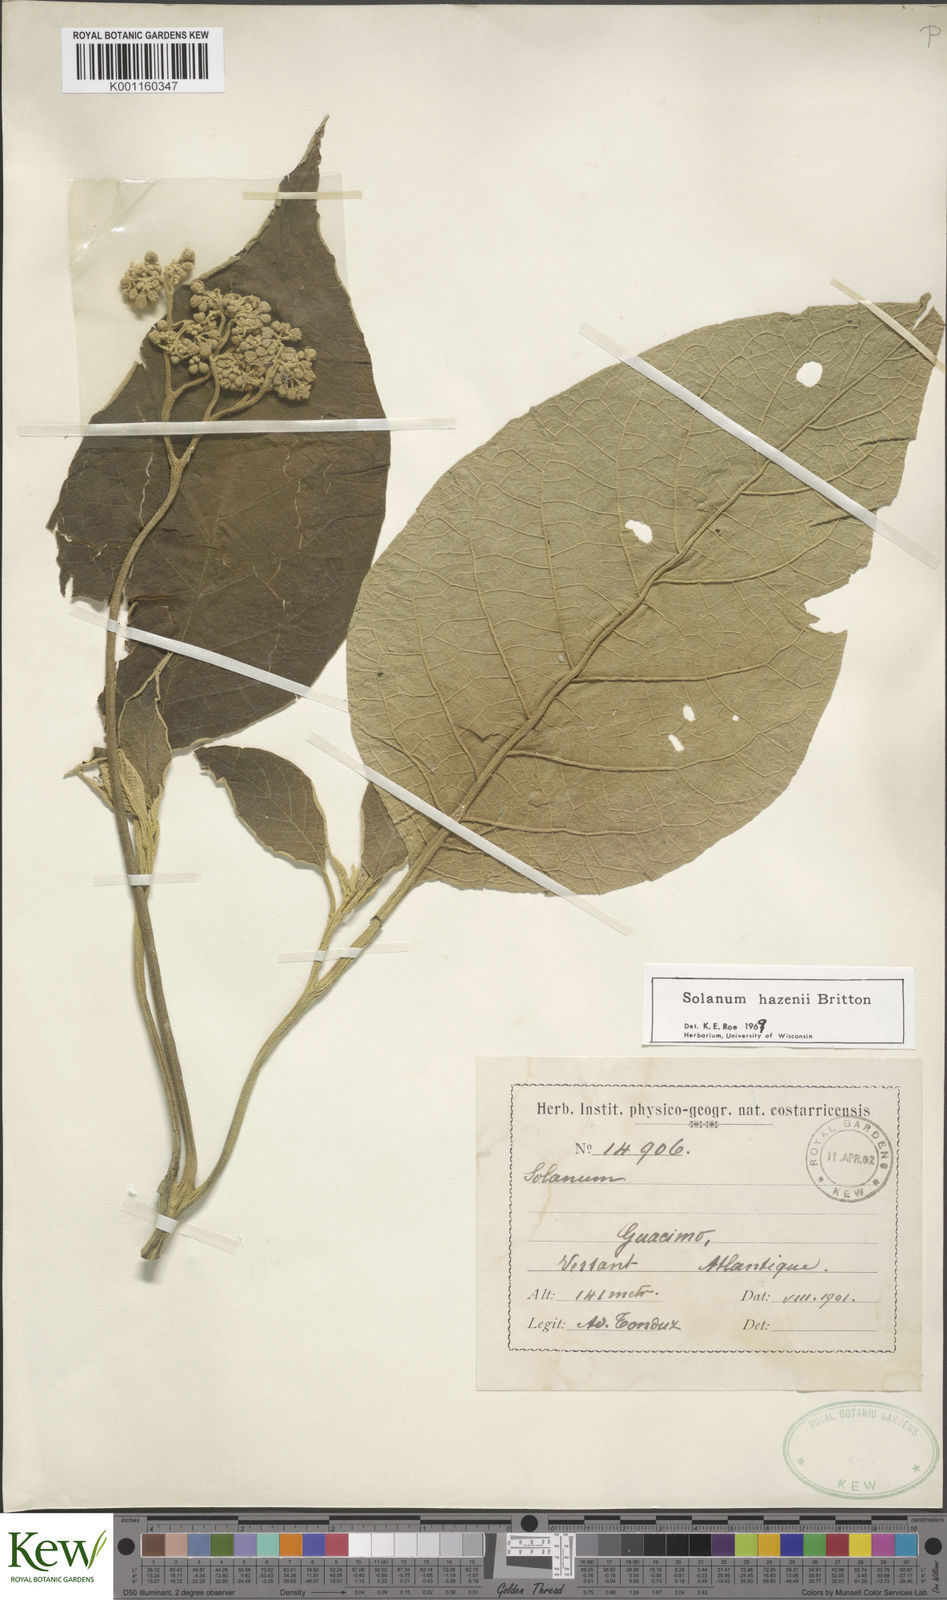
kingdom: Plantae
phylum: Tracheophyta
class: Magnoliopsida
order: Solanales
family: Solanaceae
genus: Solanum
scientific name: Solanum hazenii
